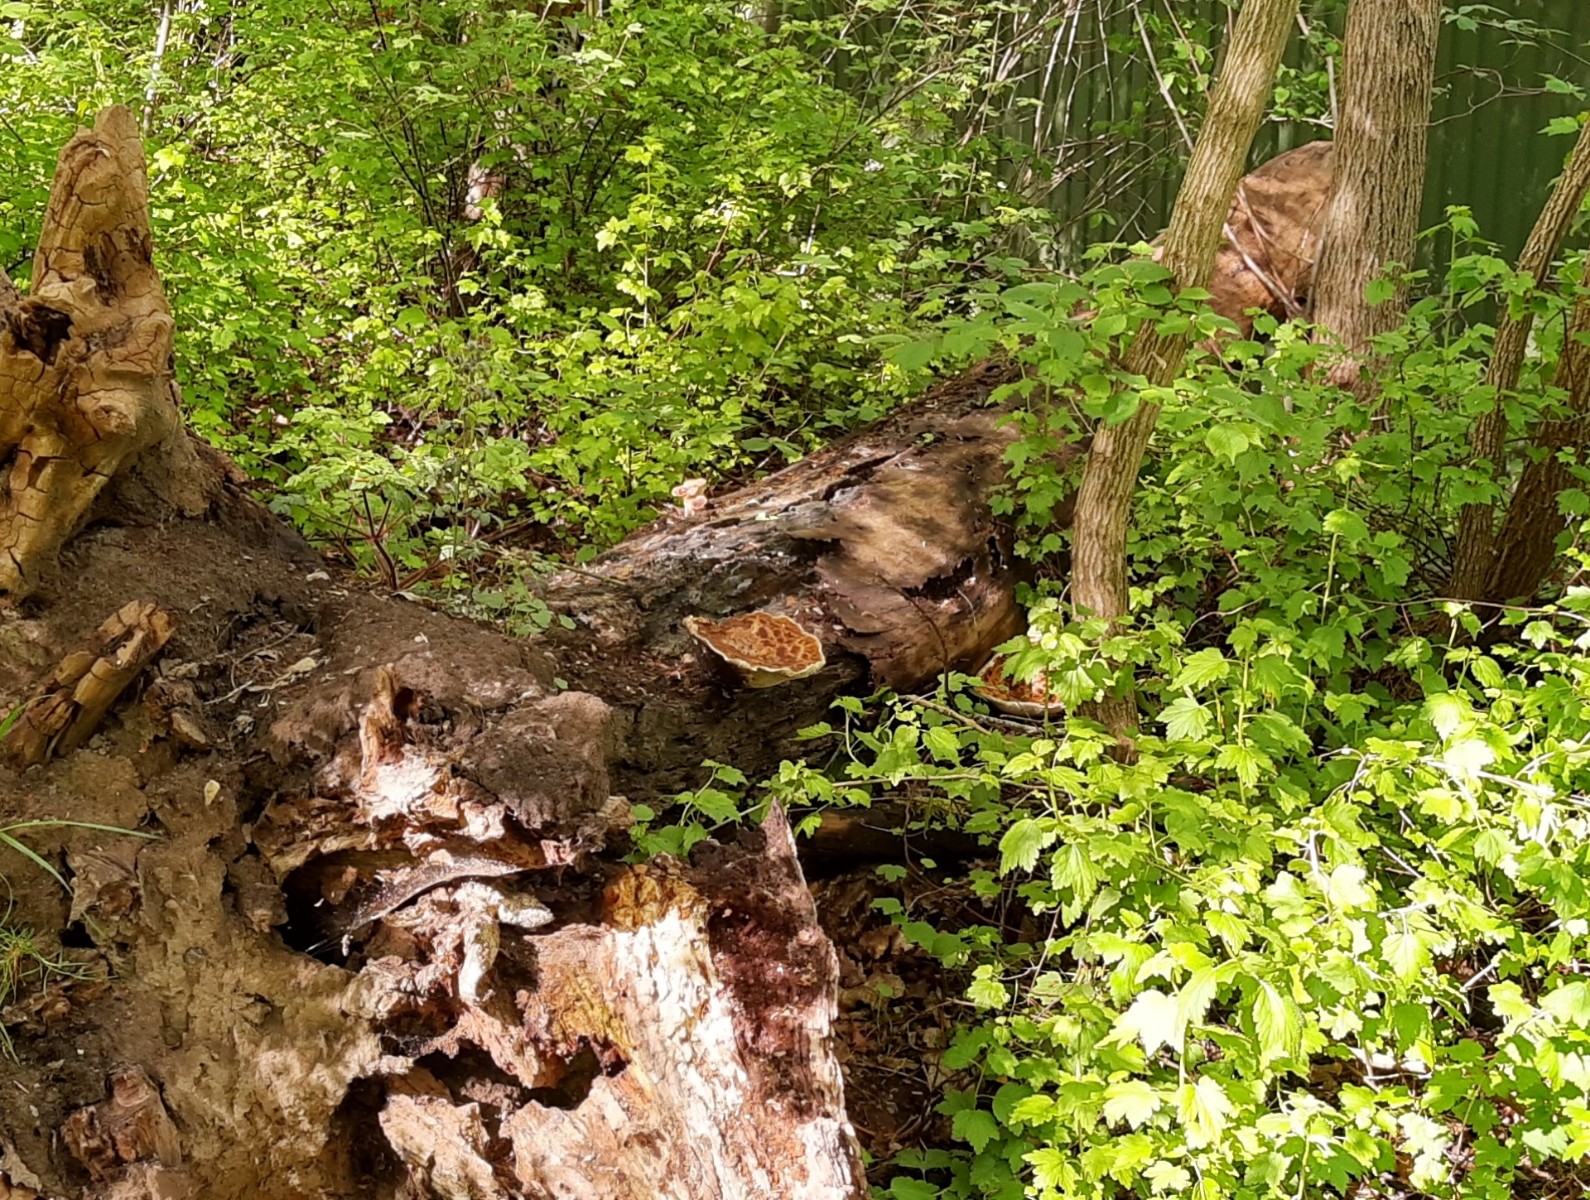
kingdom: Fungi
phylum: Basidiomycota
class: Agaricomycetes
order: Polyporales
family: Polyporaceae
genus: Cerioporus
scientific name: Cerioporus squamosus
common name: skællet stilkporesvamp
